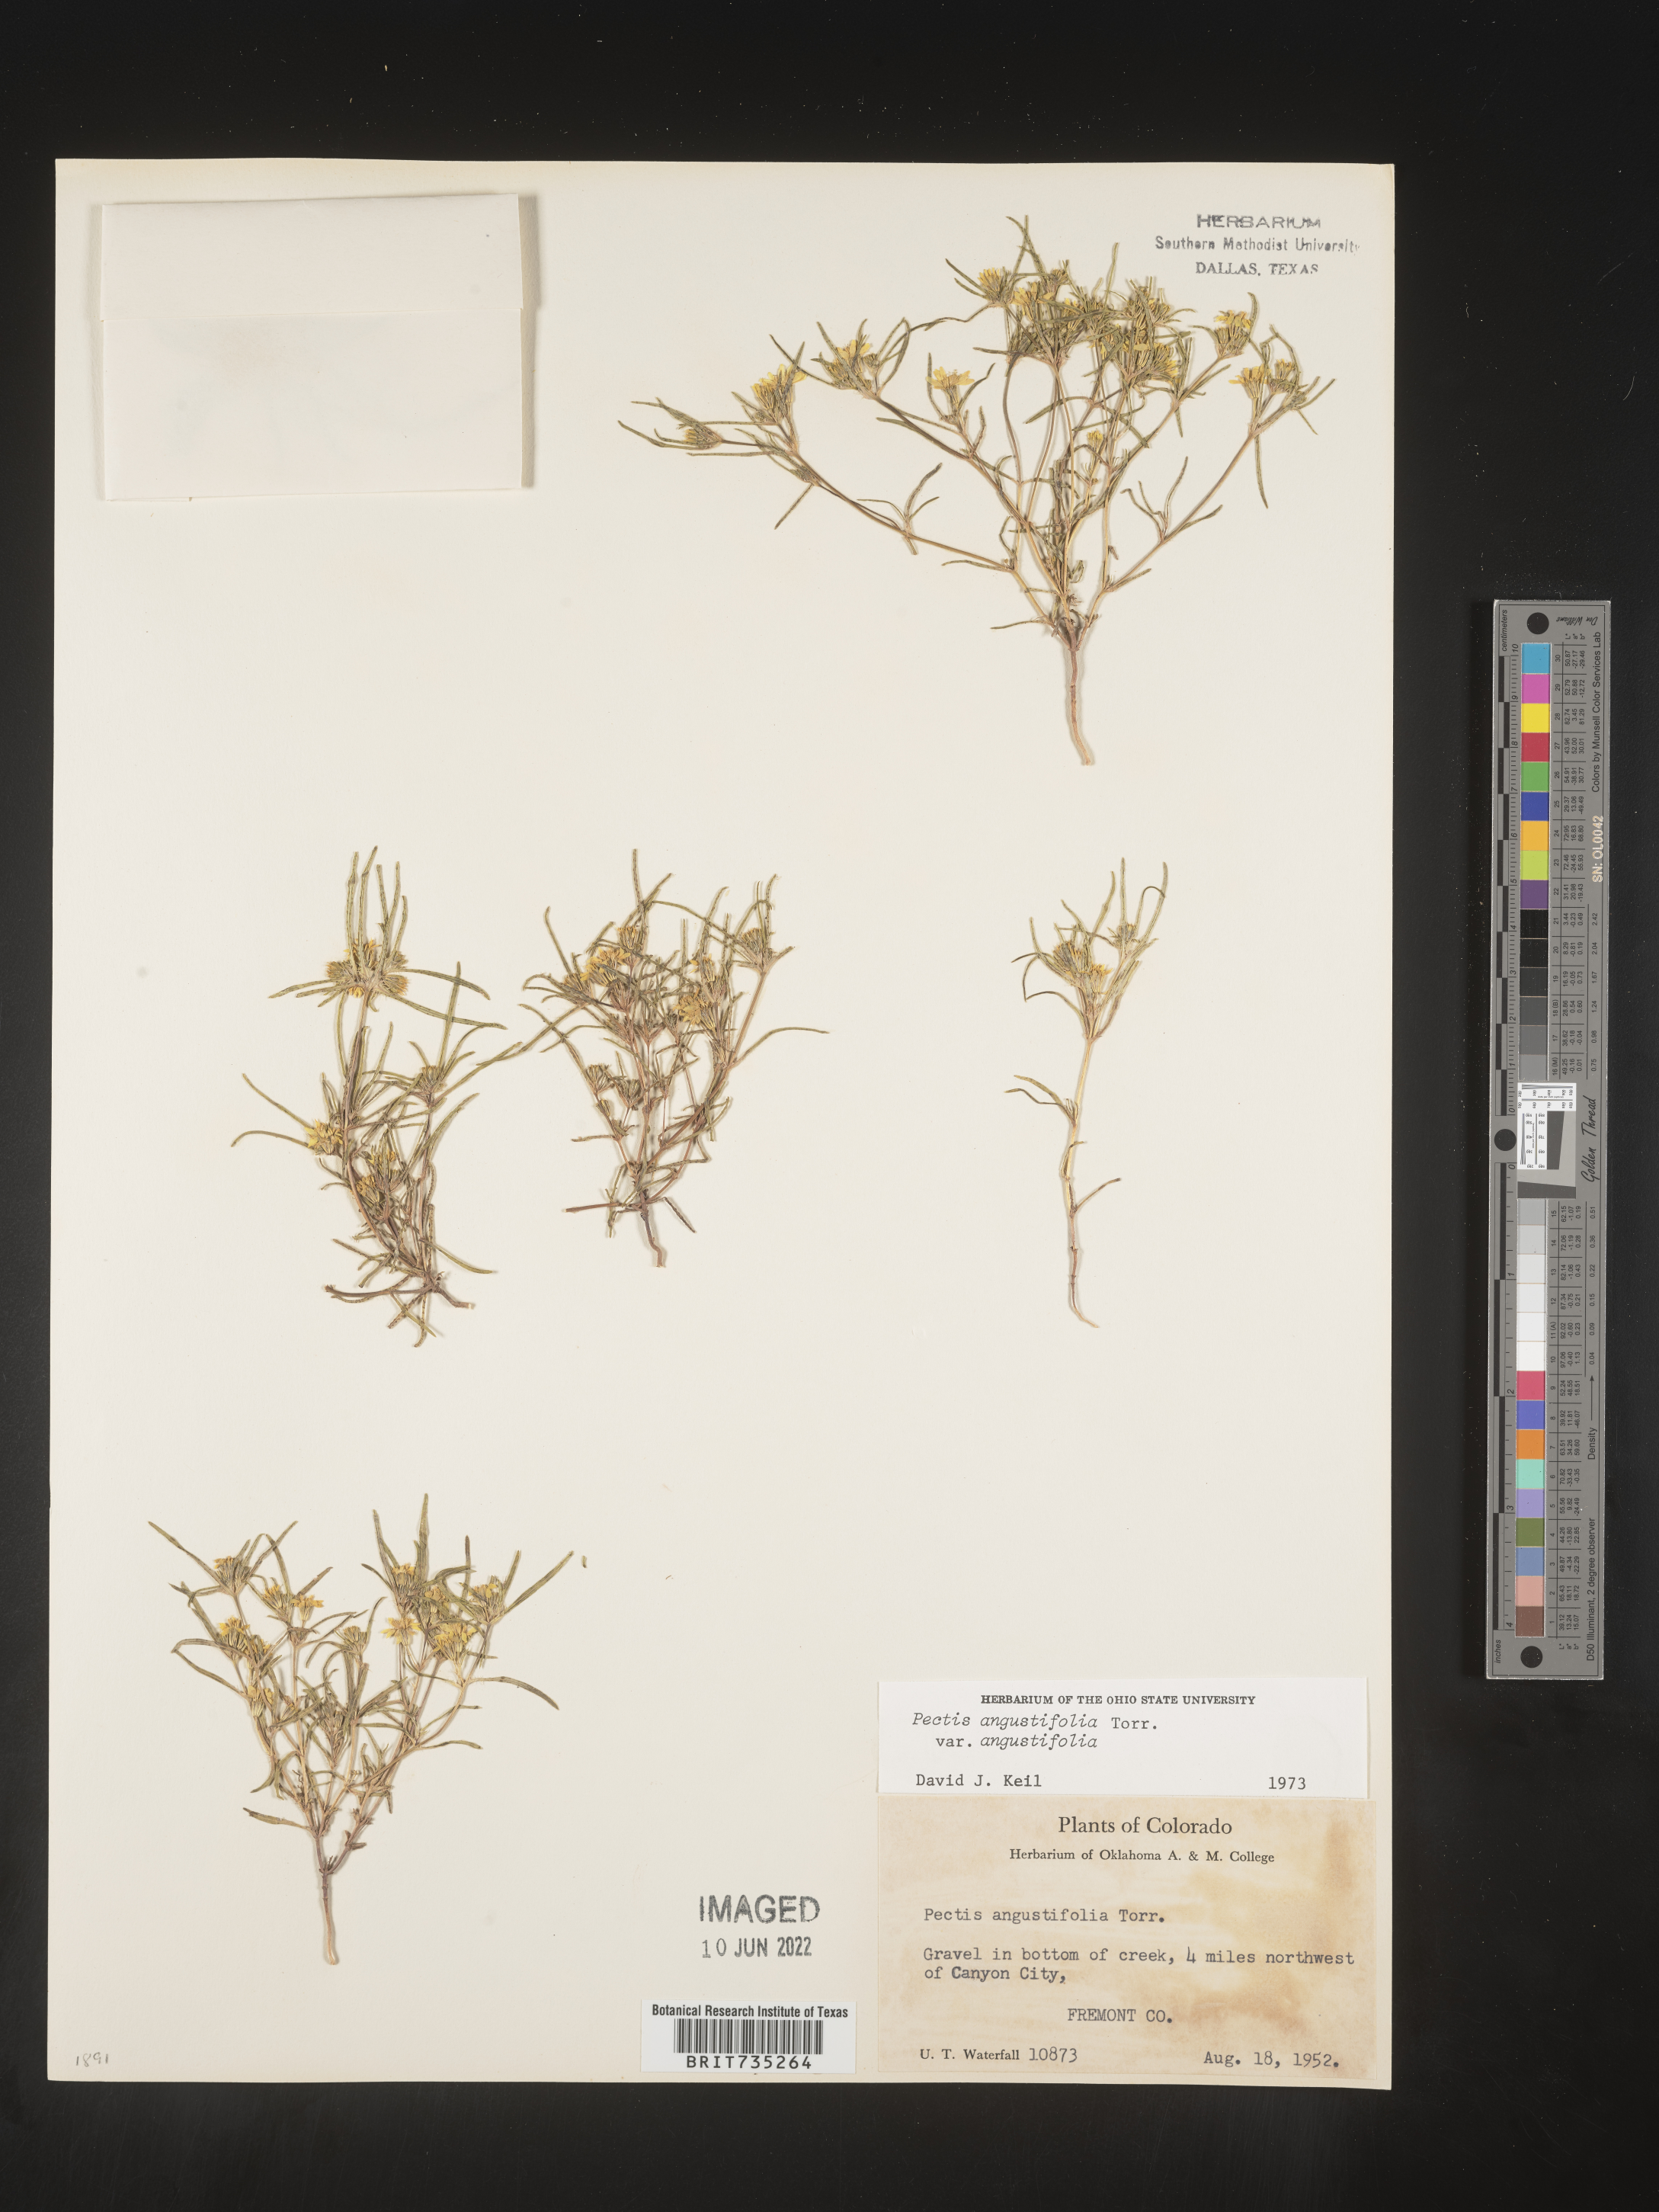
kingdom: Plantae
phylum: Tracheophyta
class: Magnoliopsida
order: Asterales
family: Asteraceae
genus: Pectis
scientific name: Pectis angustifolia
